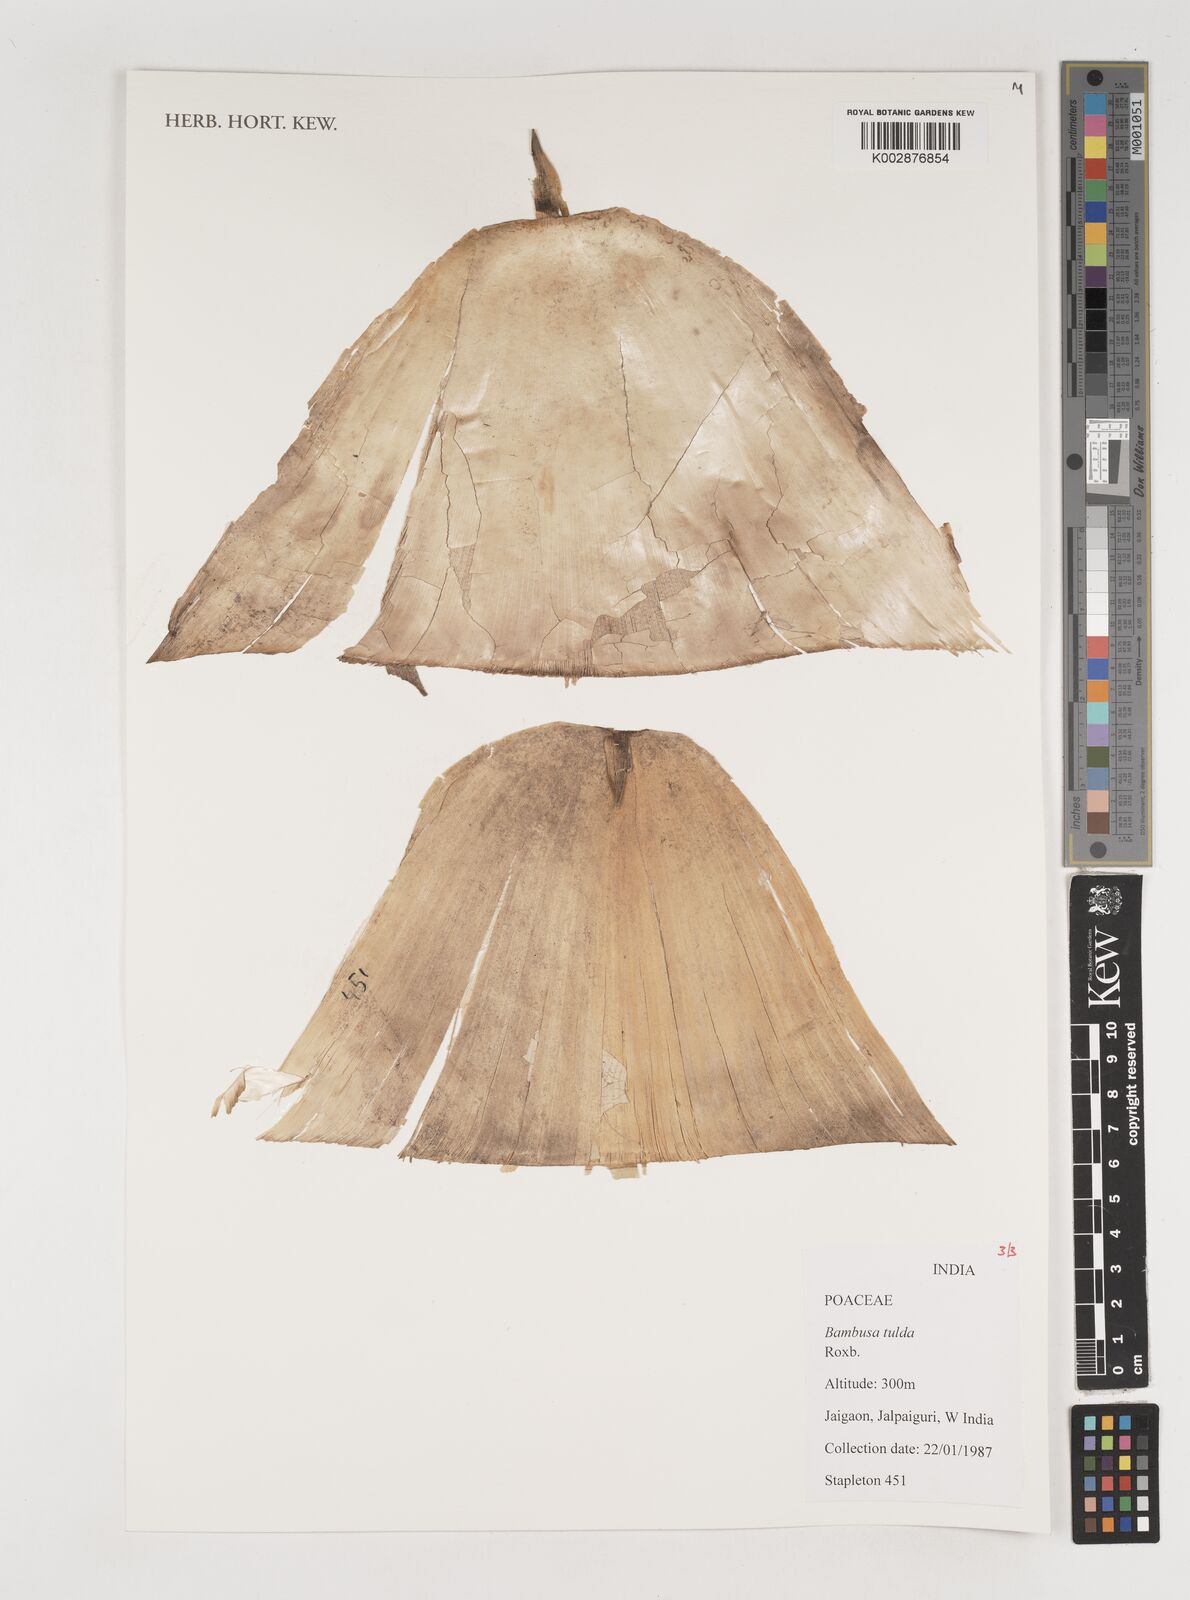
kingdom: Plantae
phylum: Tracheophyta
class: Liliopsida
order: Poales
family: Poaceae
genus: Bambusa
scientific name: Bambusa tulda
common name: Bengal bamboo
